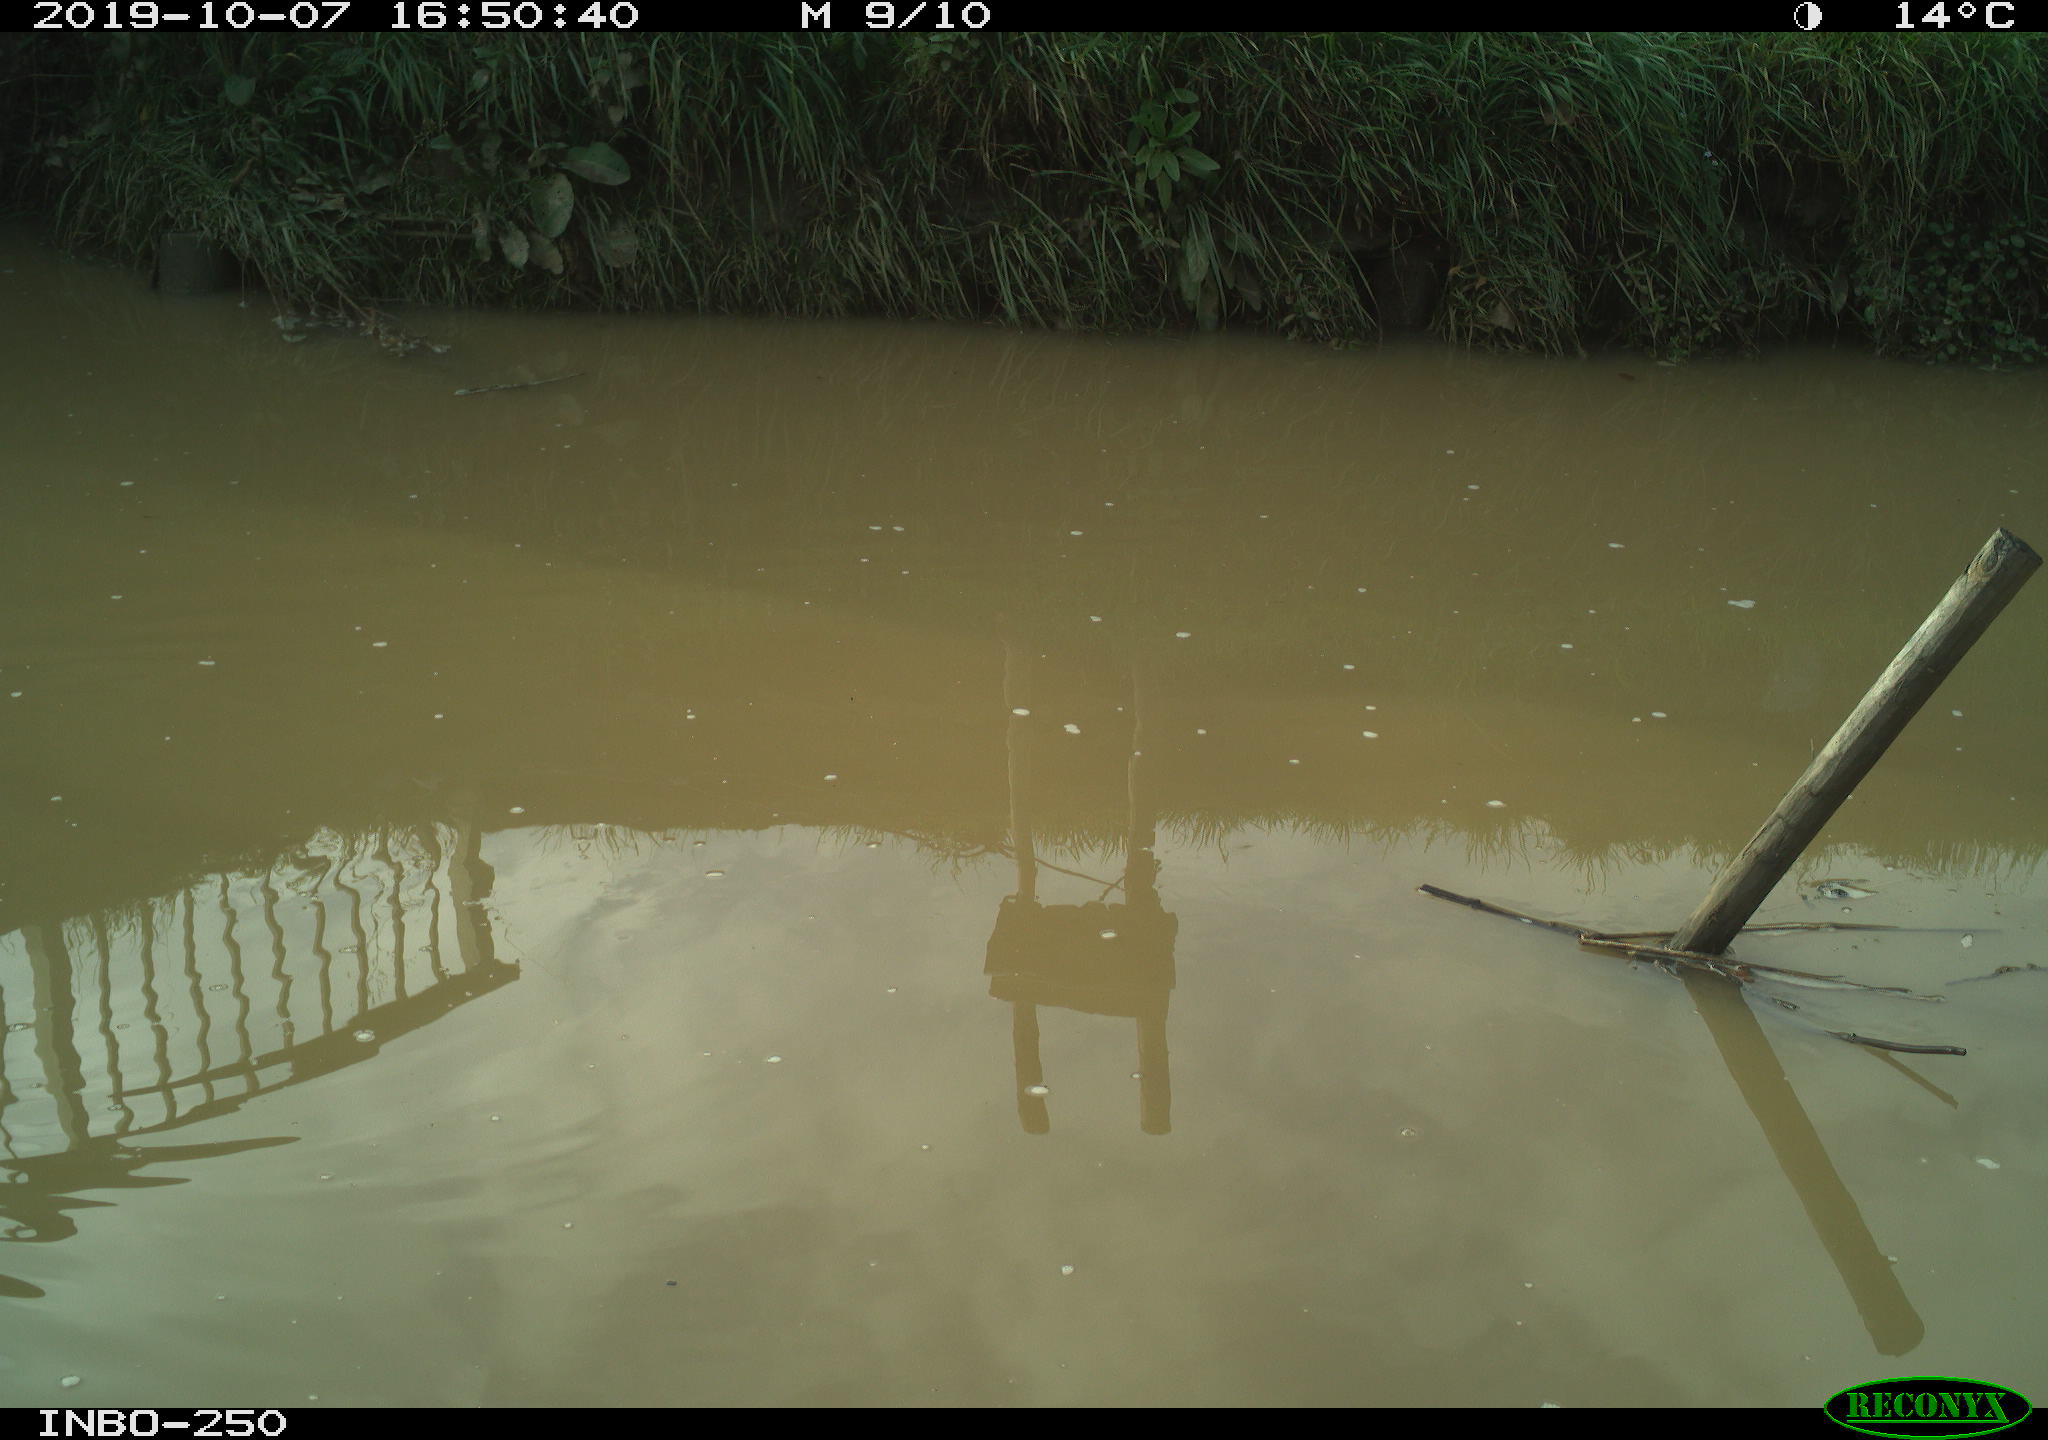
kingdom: Animalia
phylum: Chordata
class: Aves
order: Gruiformes
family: Rallidae
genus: Gallinula
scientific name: Gallinula chloropus
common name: Common moorhen
